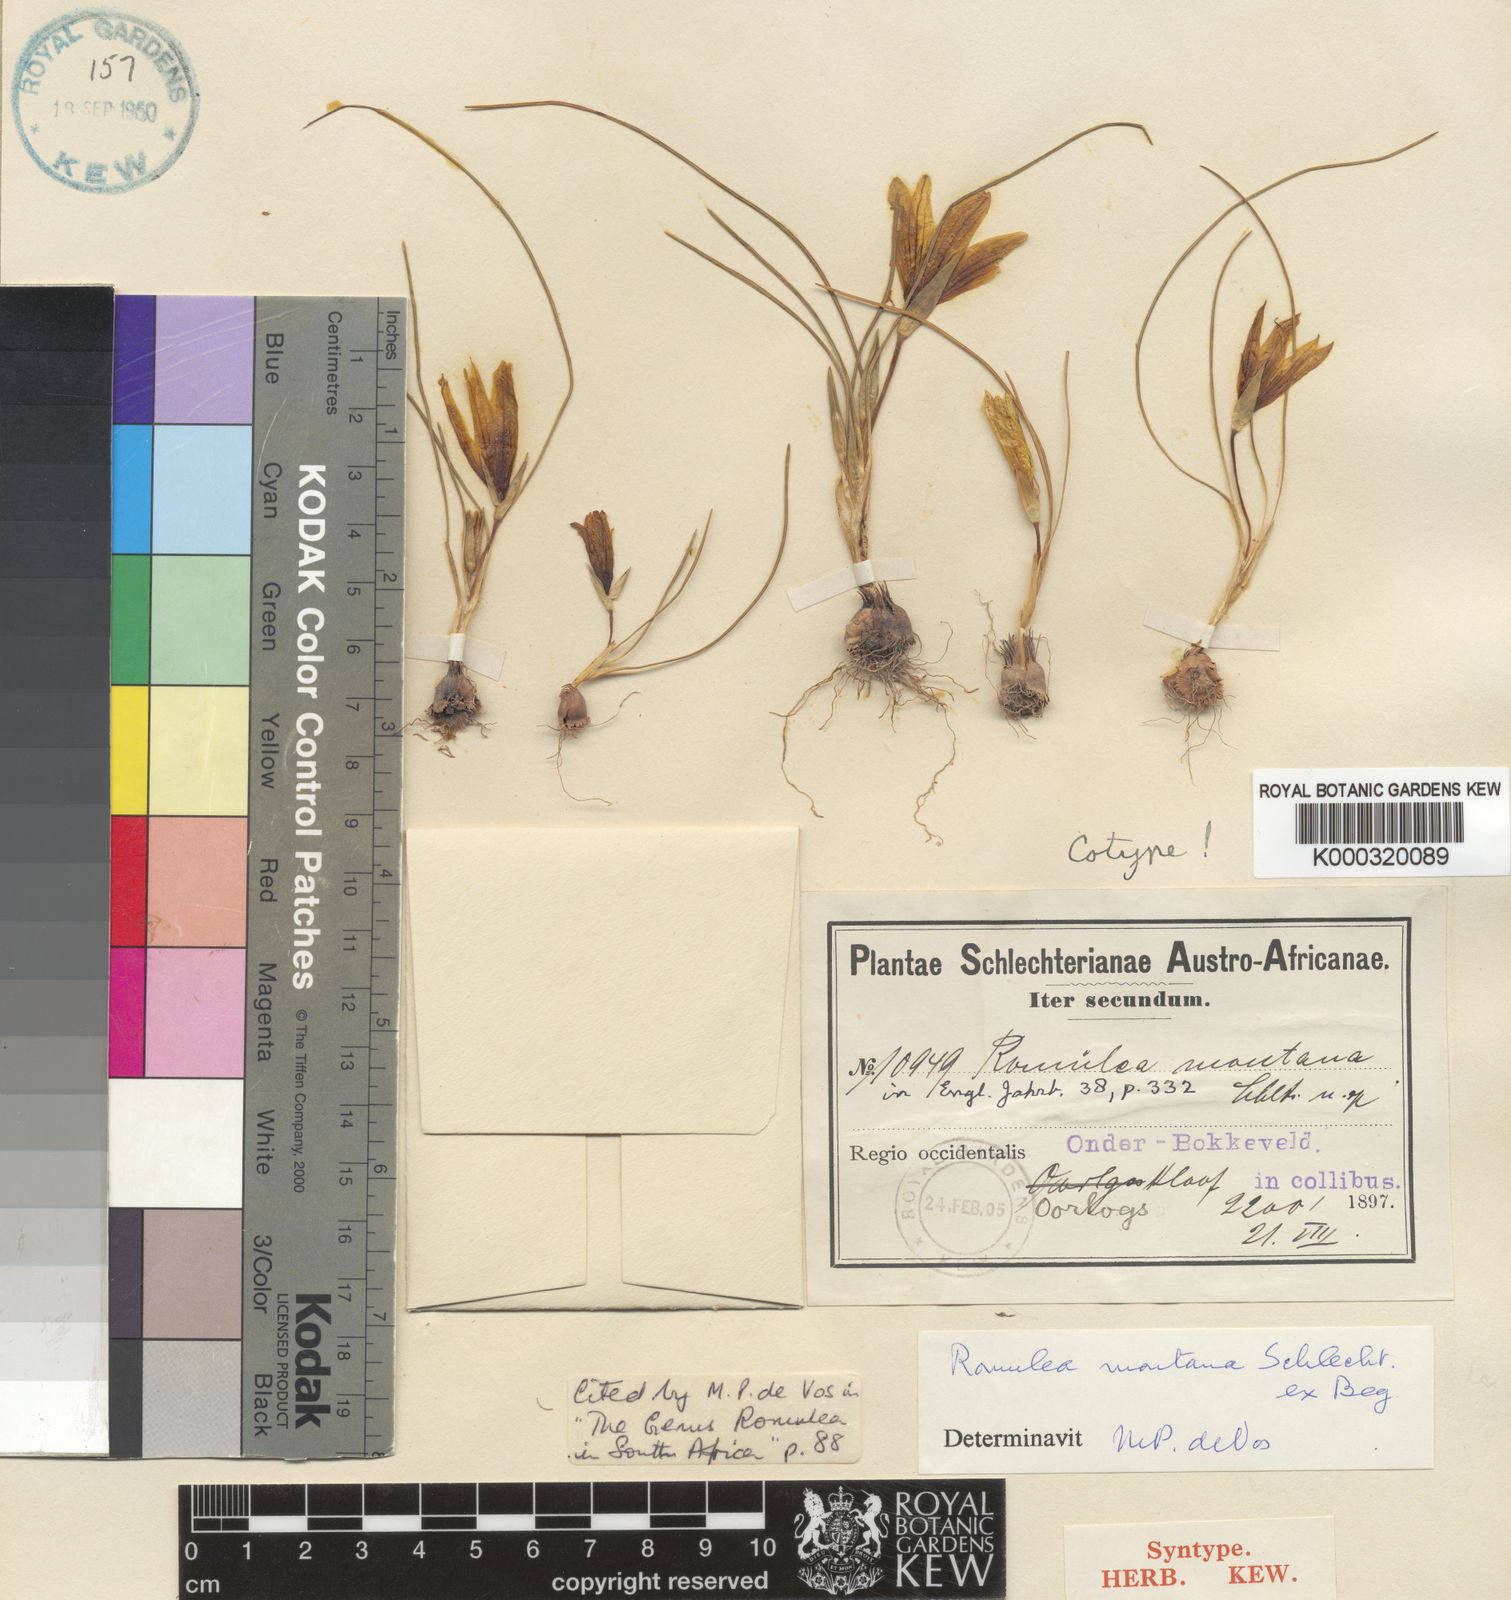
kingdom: Plantae
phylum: Tracheophyta
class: Liliopsida
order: Asparagales
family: Iridaceae
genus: Romulea
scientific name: Romulea
